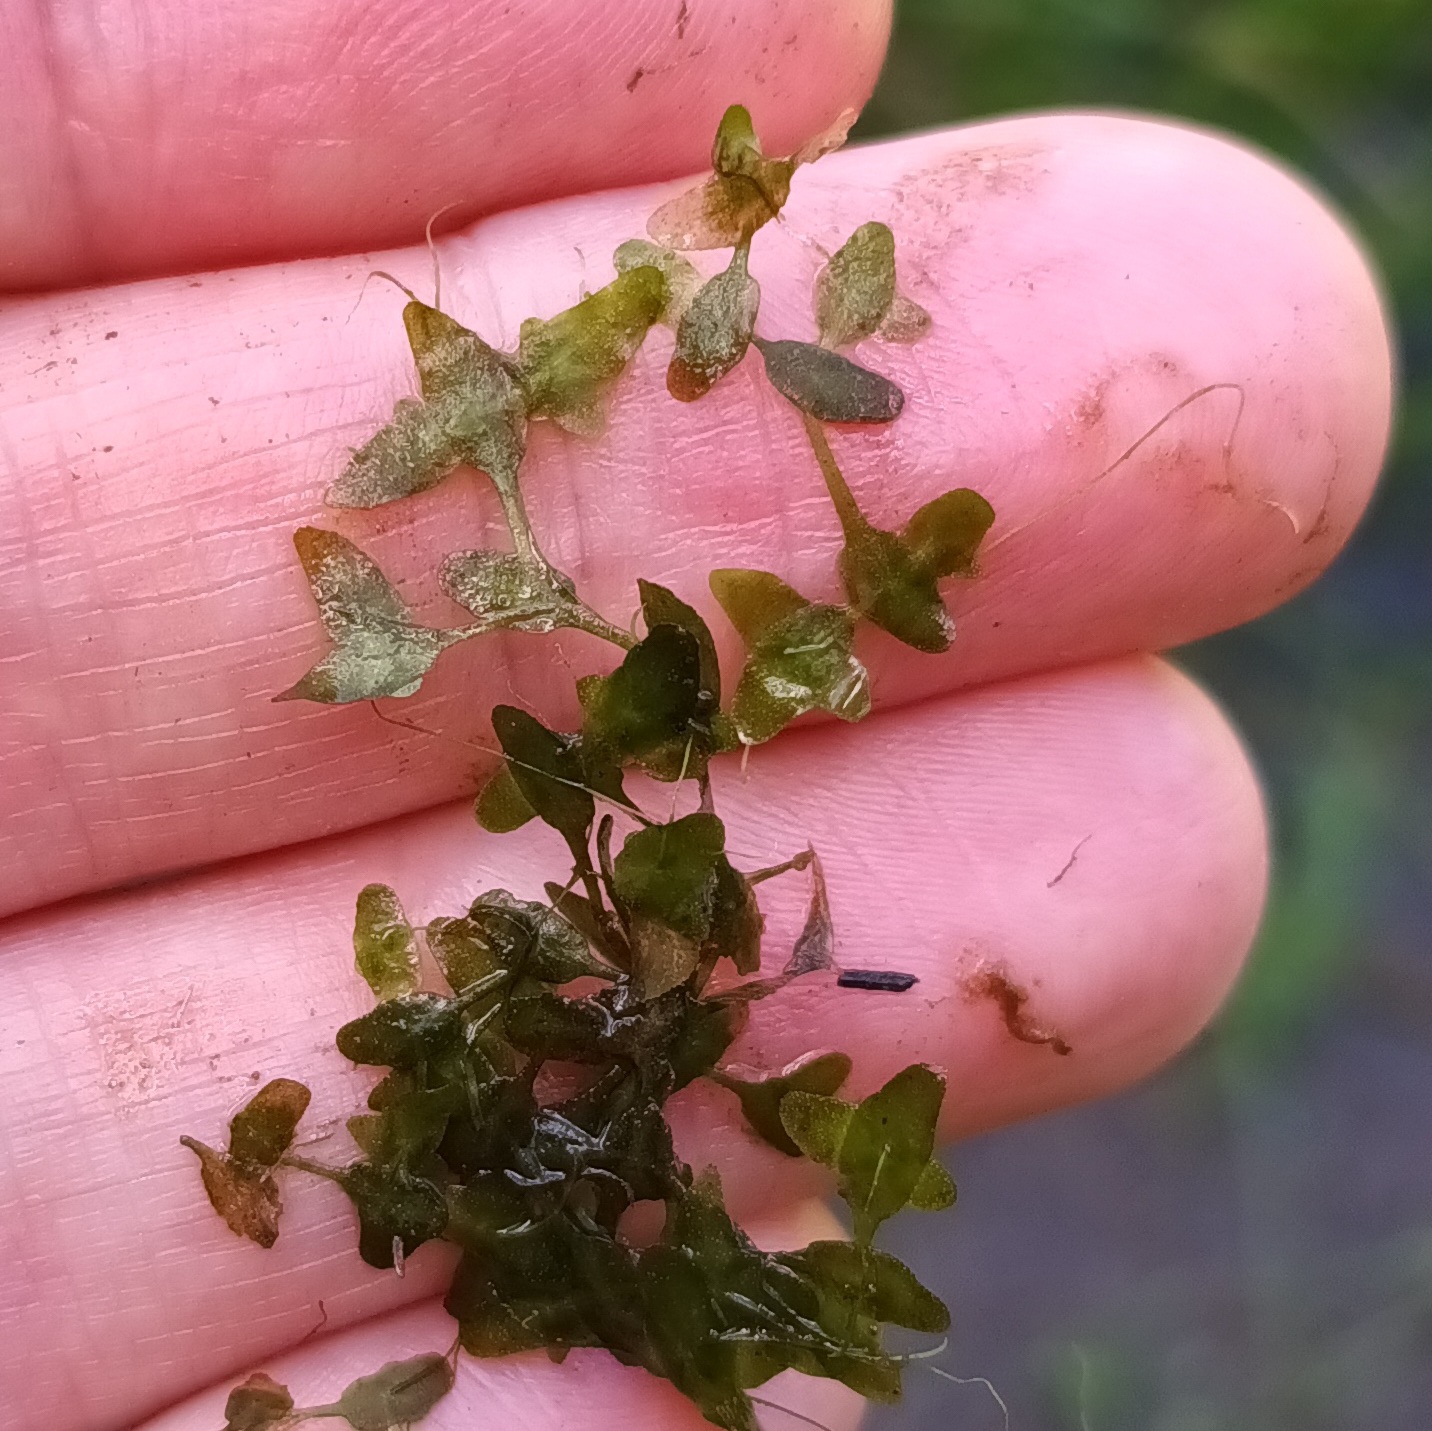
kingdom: Plantae
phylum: Tracheophyta
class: Liliopsida
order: Alismatales
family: Araceae
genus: Lemna
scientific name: Lemna trisulca
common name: Kors-andemad
